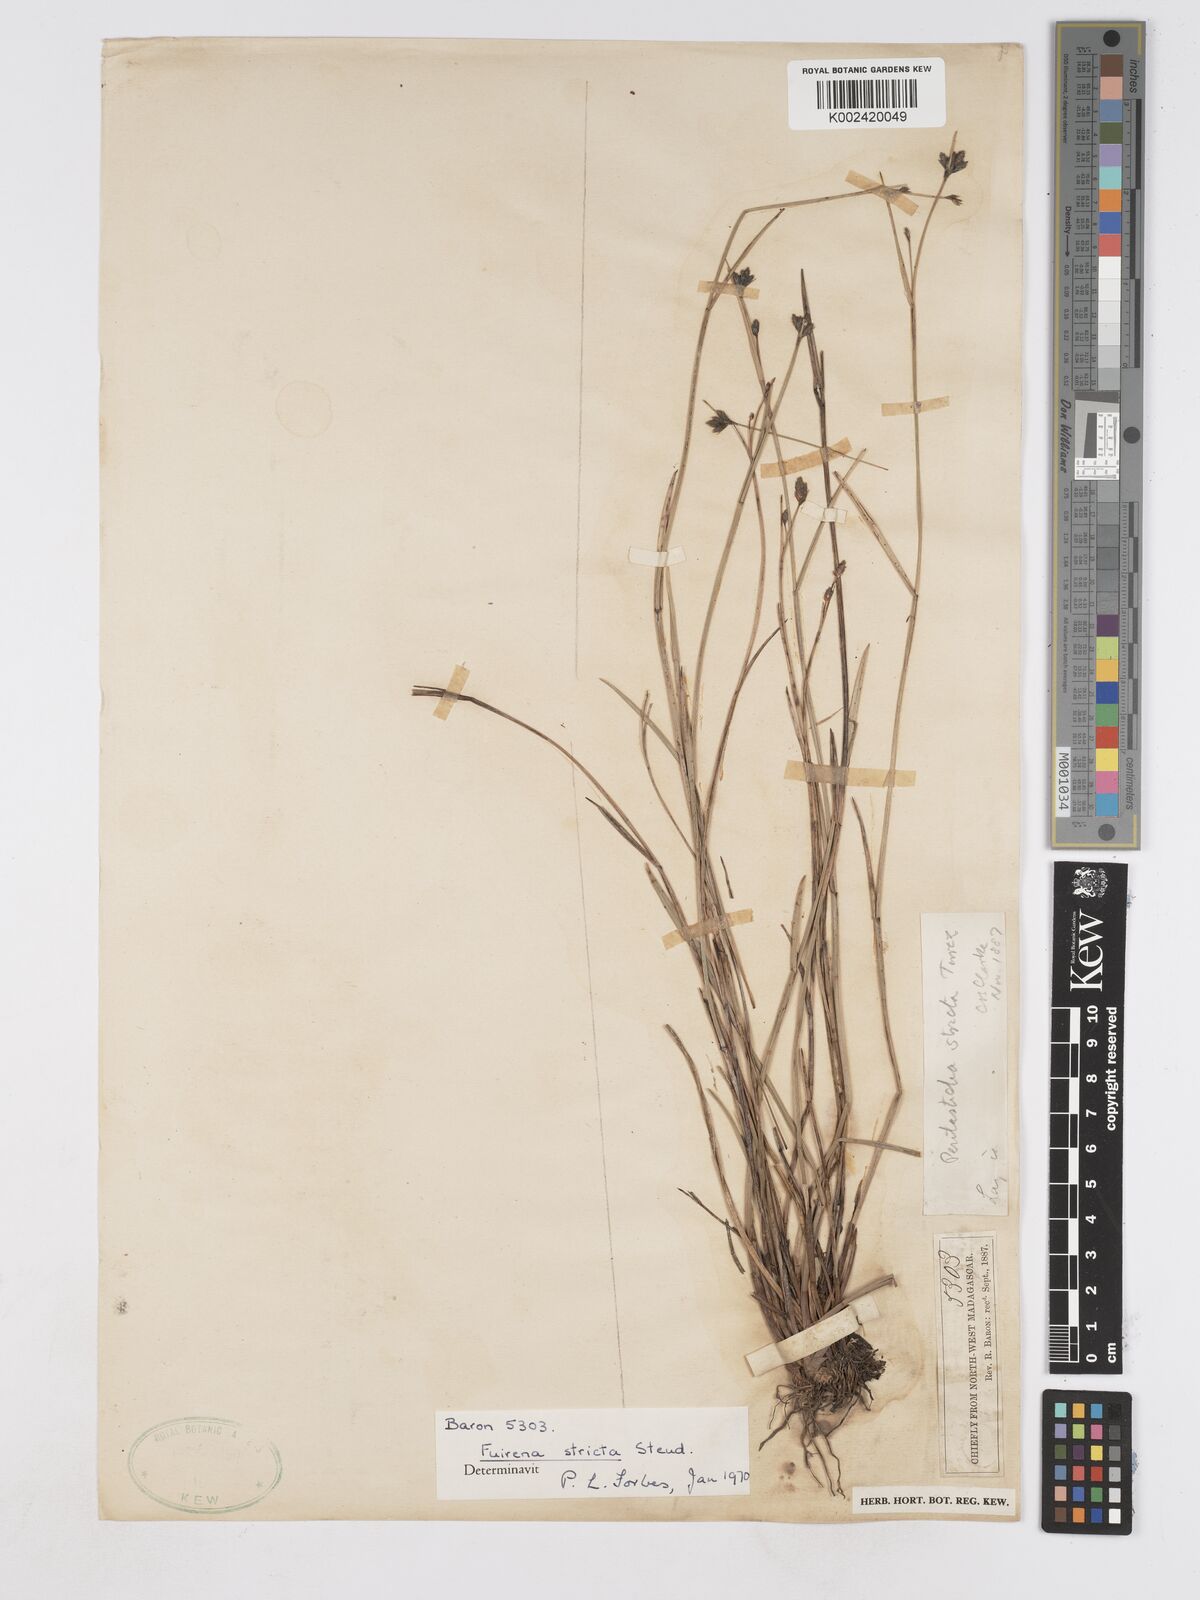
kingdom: Plantae
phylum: Tracheophyta
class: Liliopsida
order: Poales
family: Cyperaceae
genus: Fuirena
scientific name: Fuirena stricta
